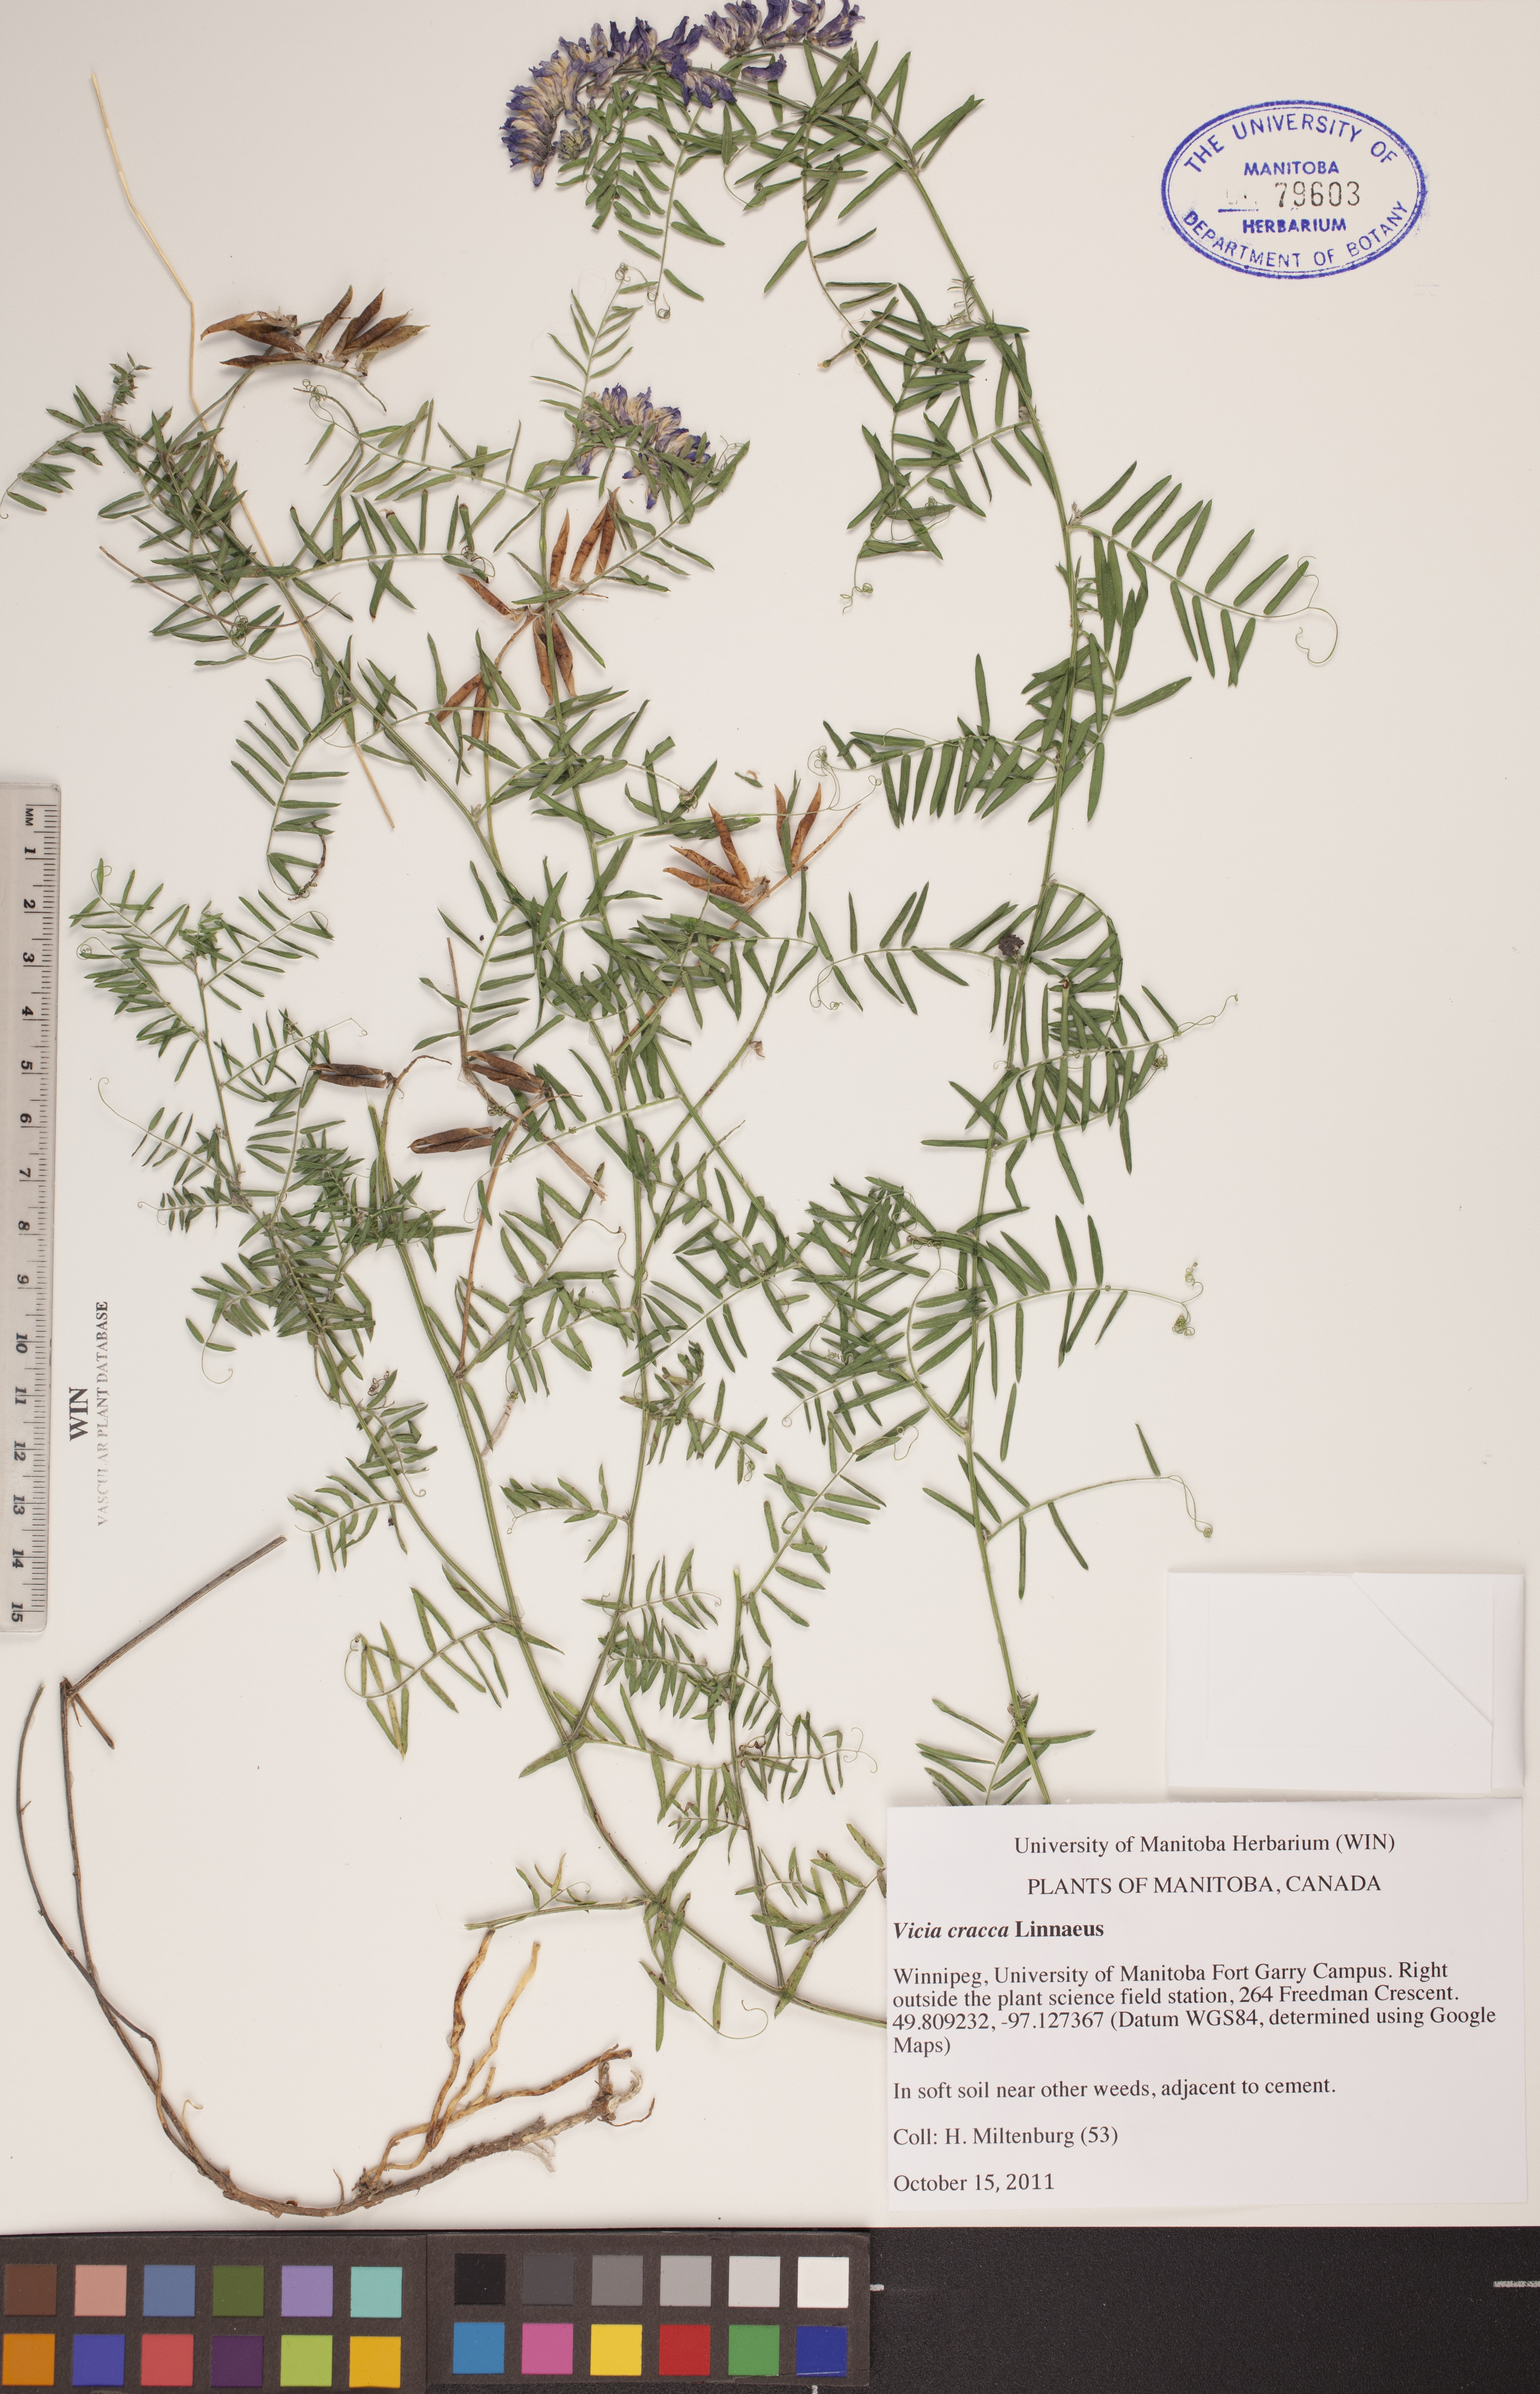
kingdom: Plantae
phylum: Tracheophyta
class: Magnoliopsida
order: Fabales
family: Fabaceae
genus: Vicia
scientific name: Vicia cracca
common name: Bird vetch
